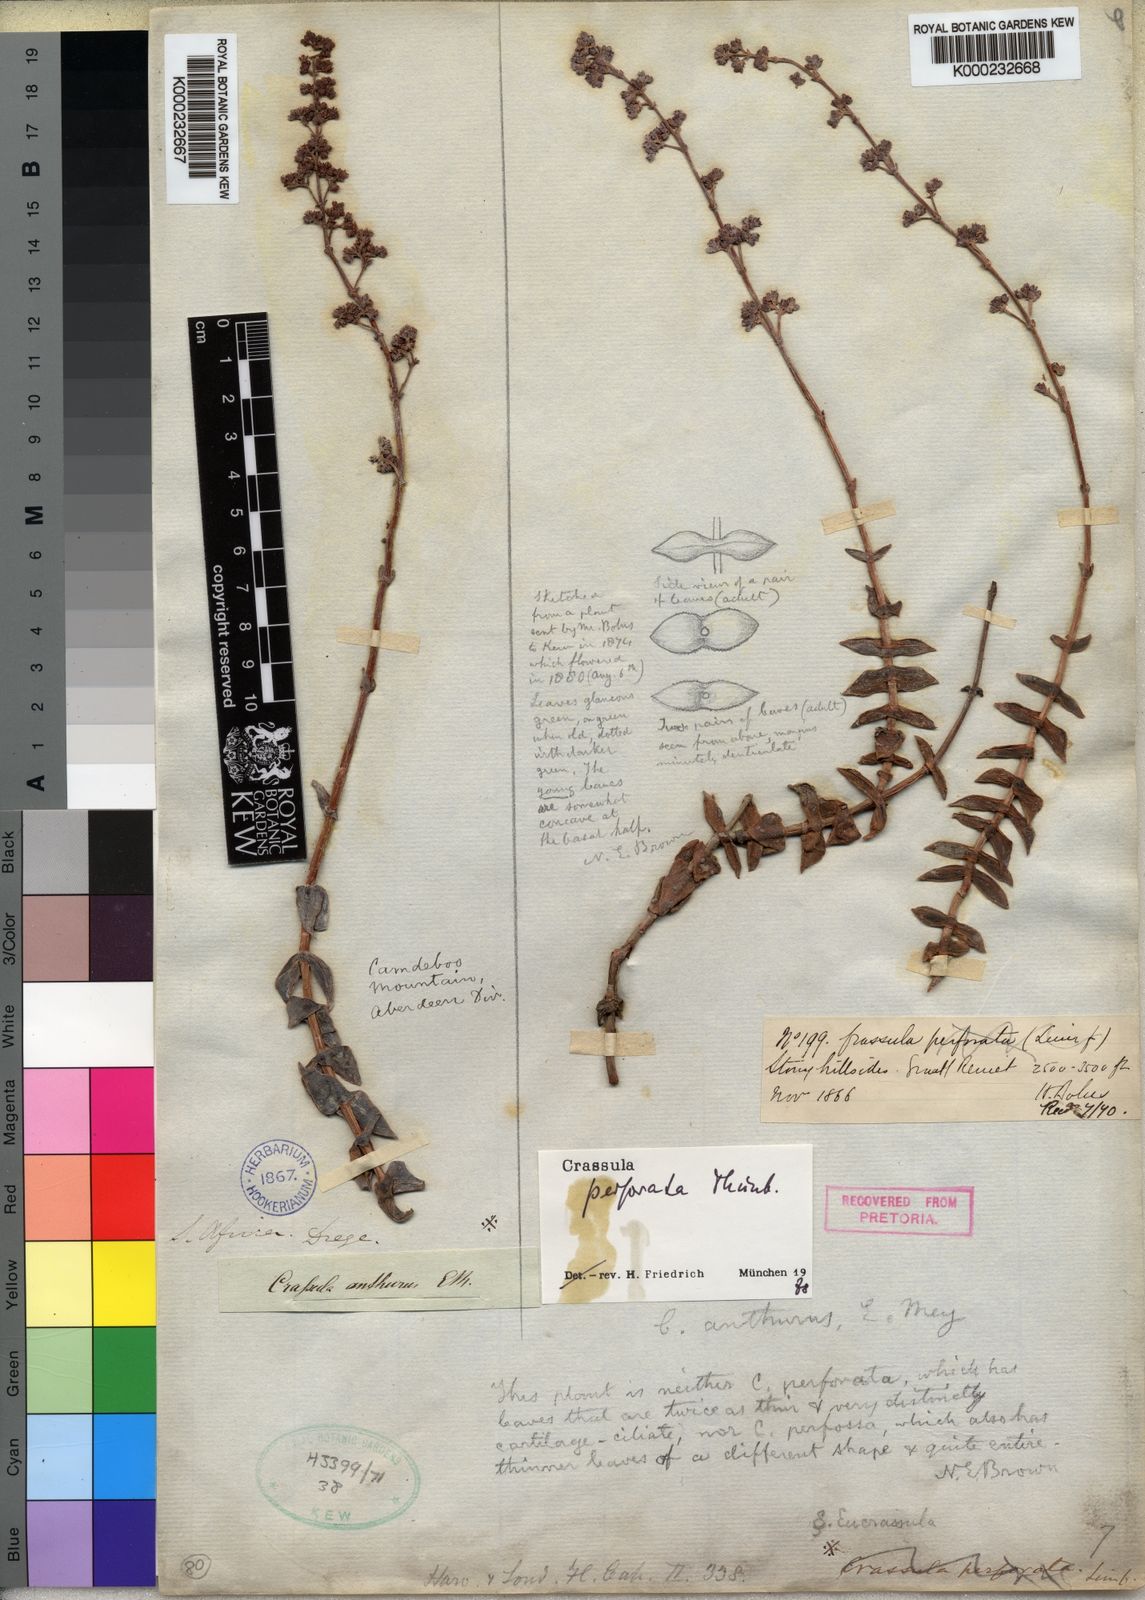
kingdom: Plantae
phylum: Tracheophyta
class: Magnoliopsida
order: Saxifragales
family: Crassulaceae
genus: Crassula
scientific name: Crassula perforata
